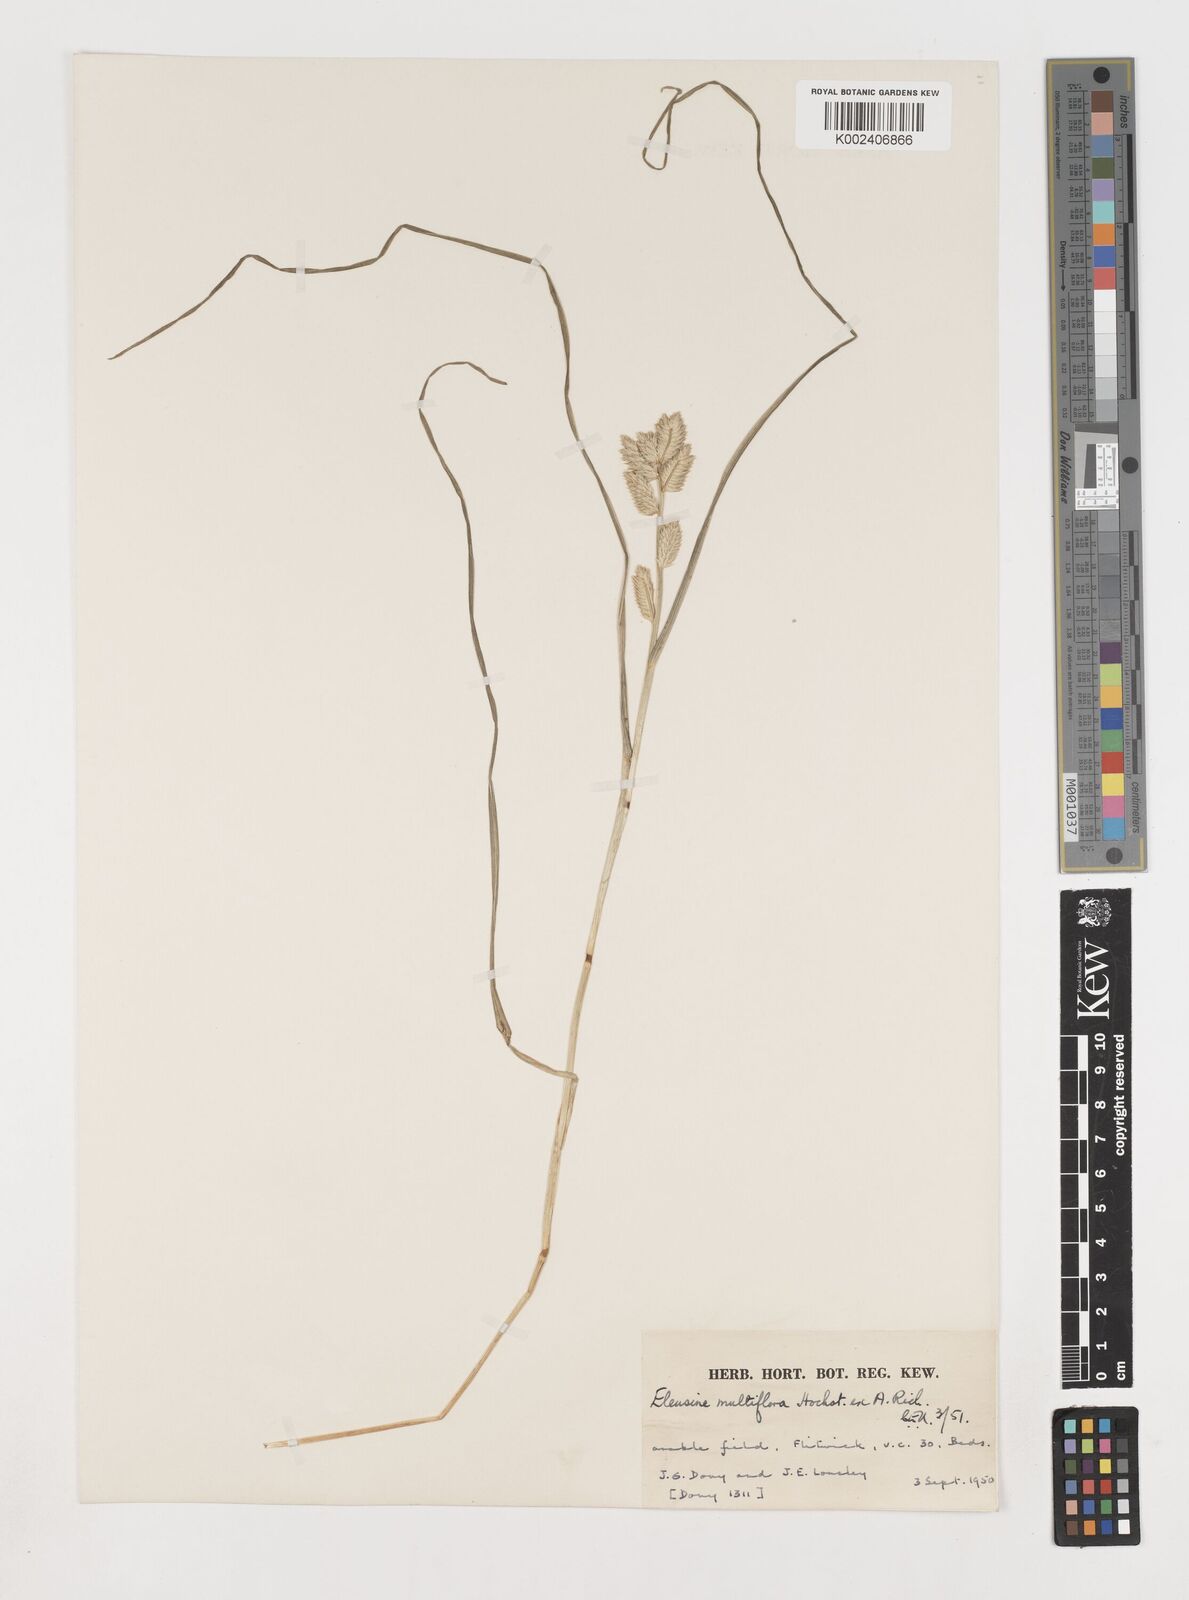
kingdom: Plantae
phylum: Tracheophyta
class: Liliopsida
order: Poales
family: Poaceae
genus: Eleusine
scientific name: Eleusine multiflora
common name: Fat-spiked yard-grass
